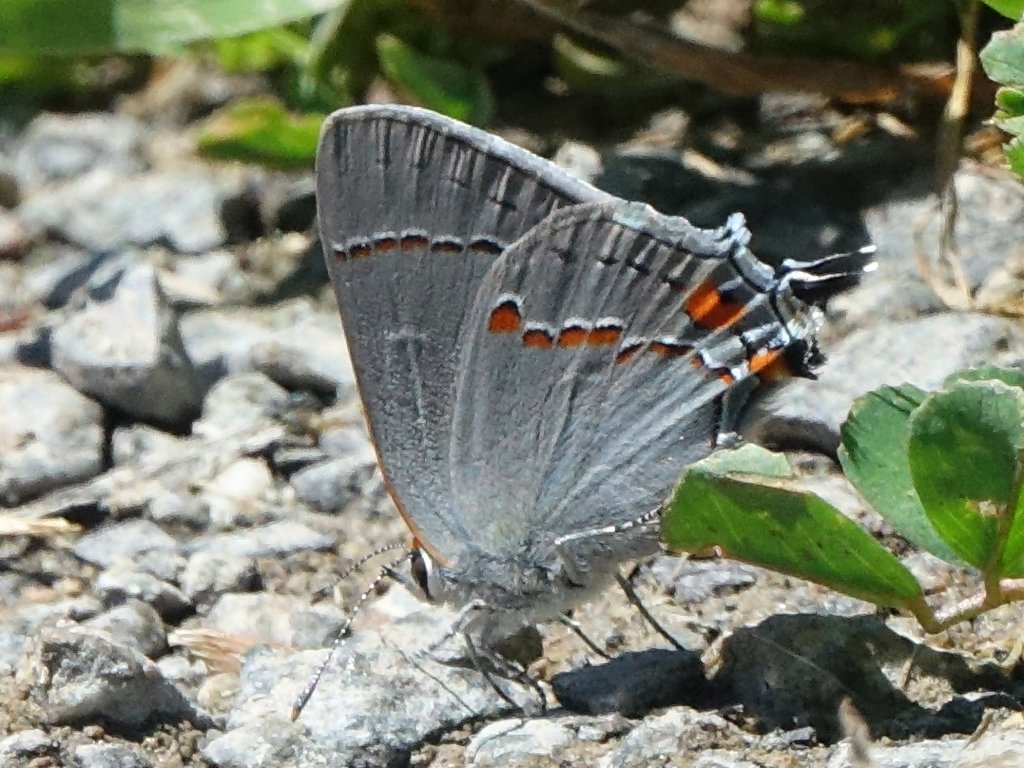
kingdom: Animalia
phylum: Arthropoda
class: Insecta
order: Lepidoptera
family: Lycaenidae
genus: Strymon
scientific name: Strymon melinus
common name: Gray Hairstreak
